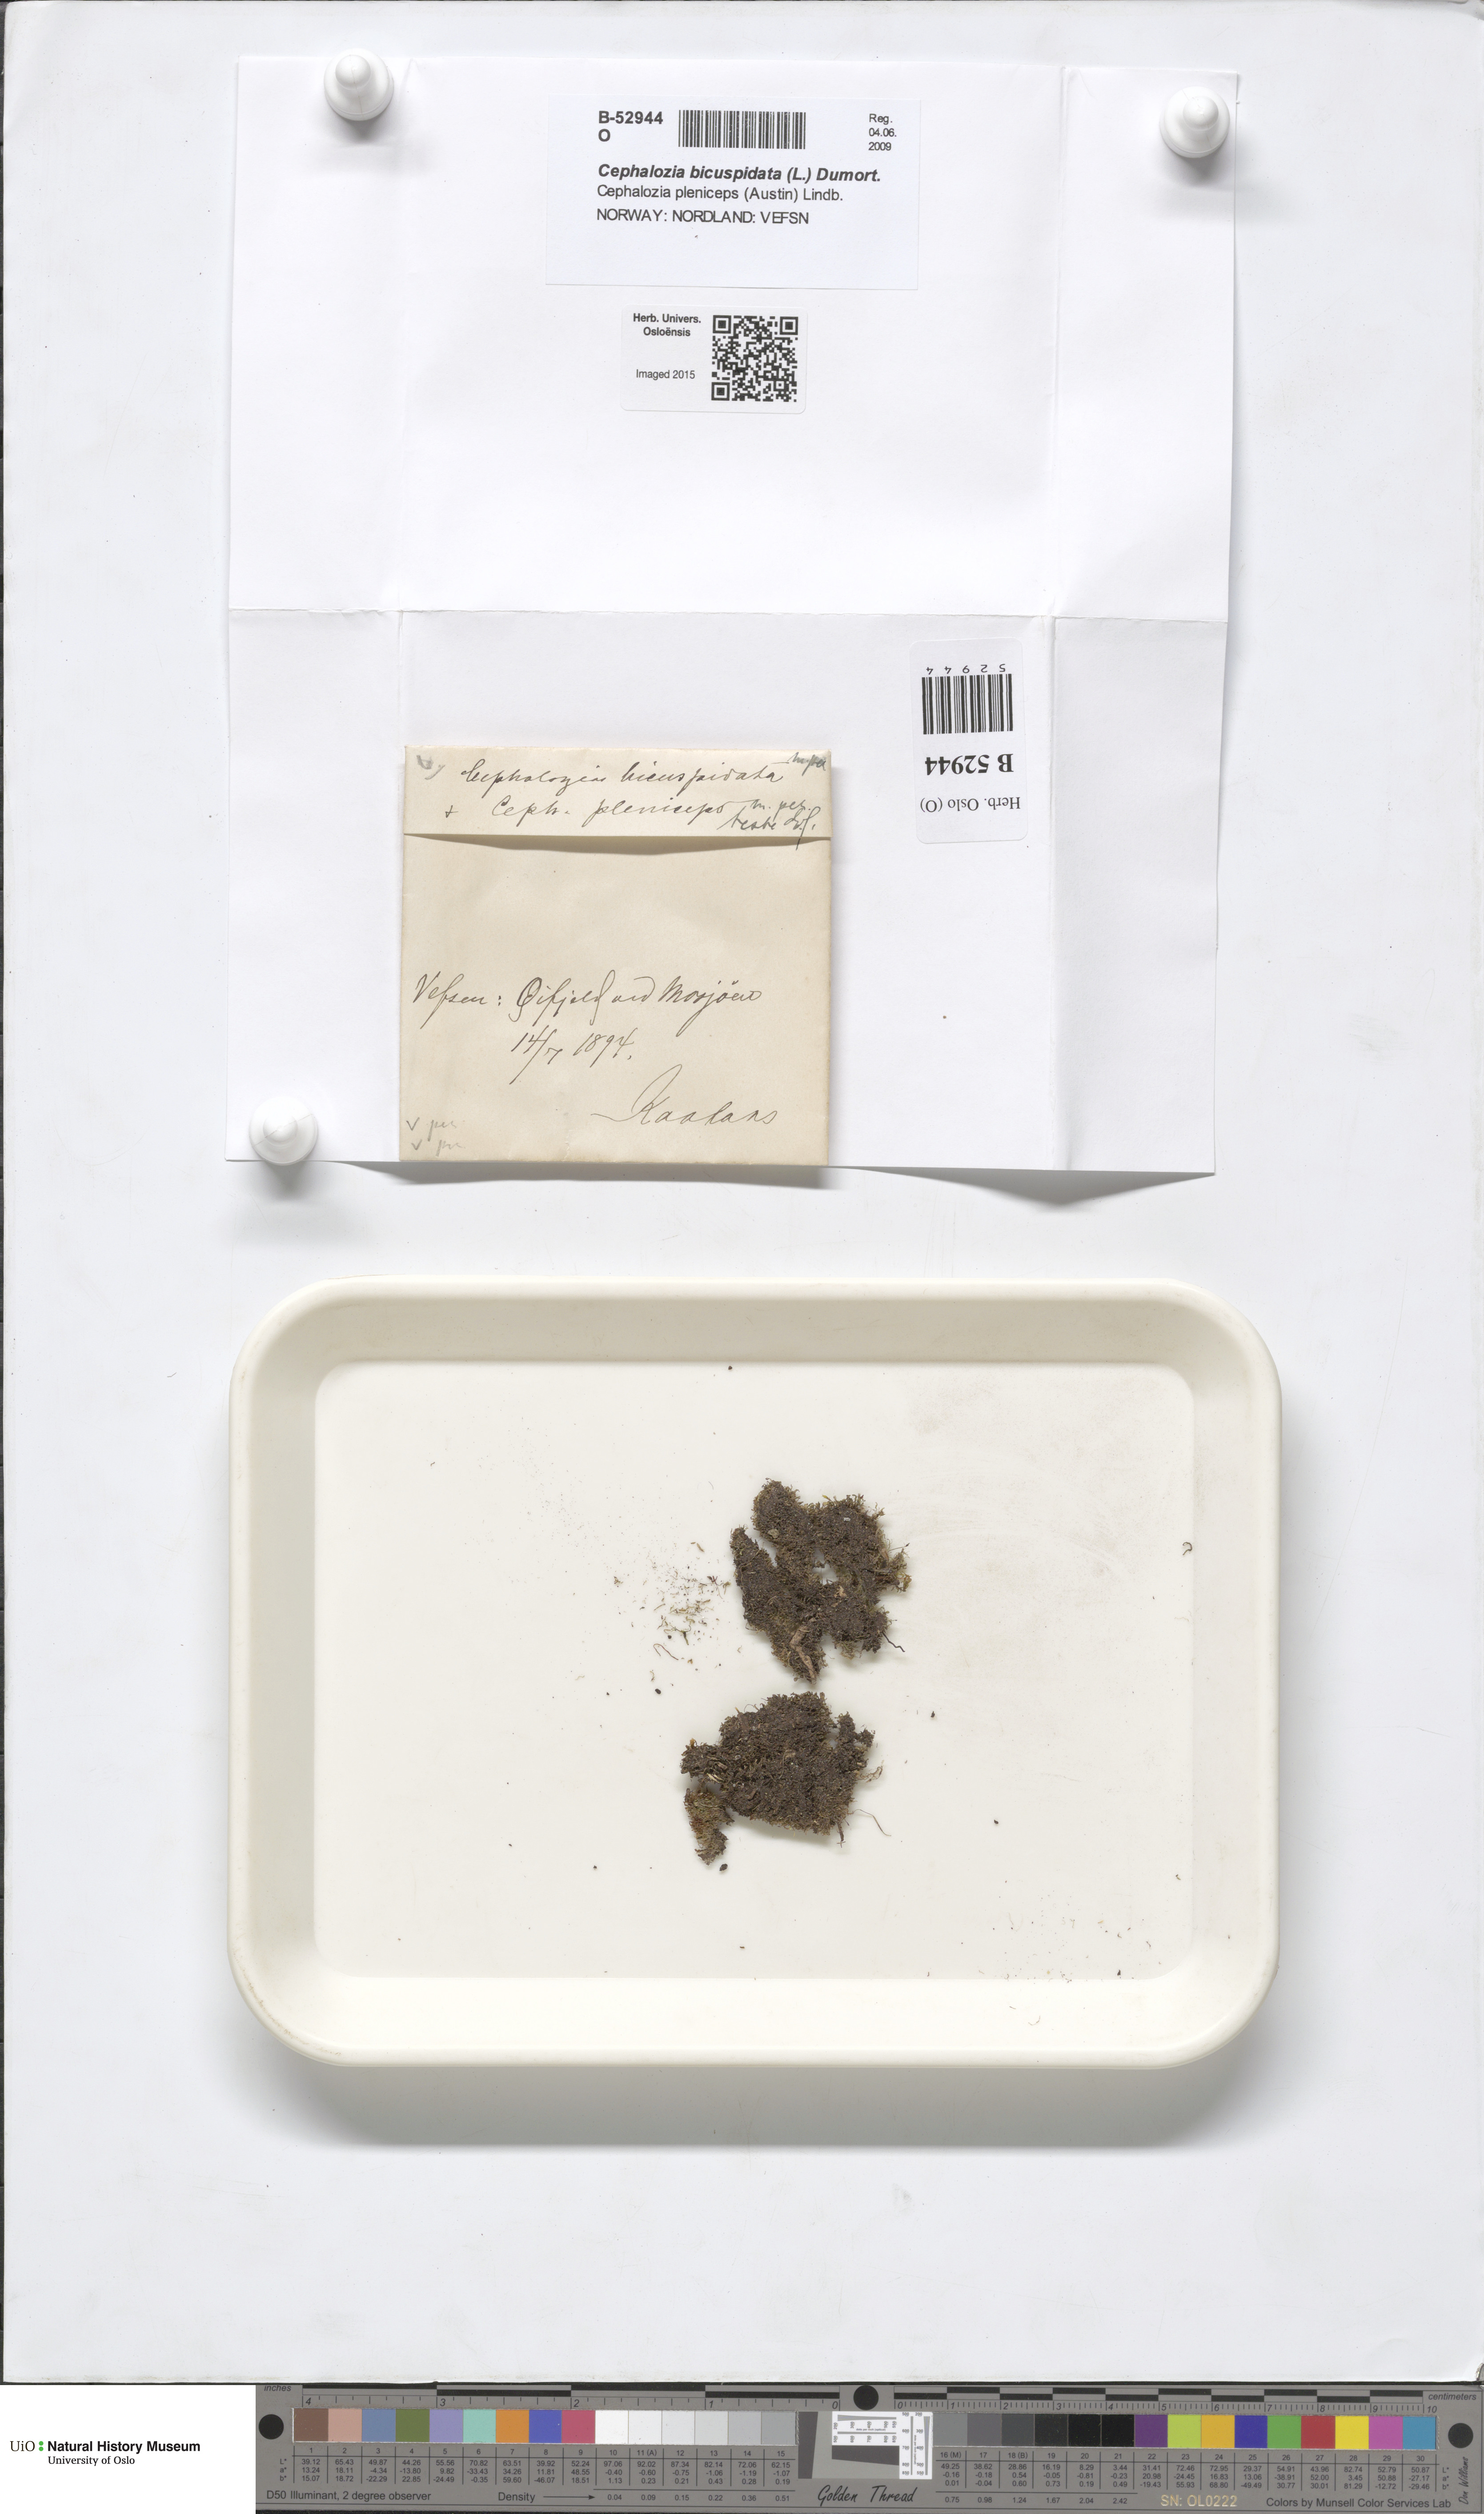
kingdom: Plantae
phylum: Marchantiophyta
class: Jungermanniopsida
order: Jungermanniales
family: Cephaloziaceae
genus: Cephalozia
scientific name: Cephalozia bicuspidata
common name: Two-horned pincerwort
